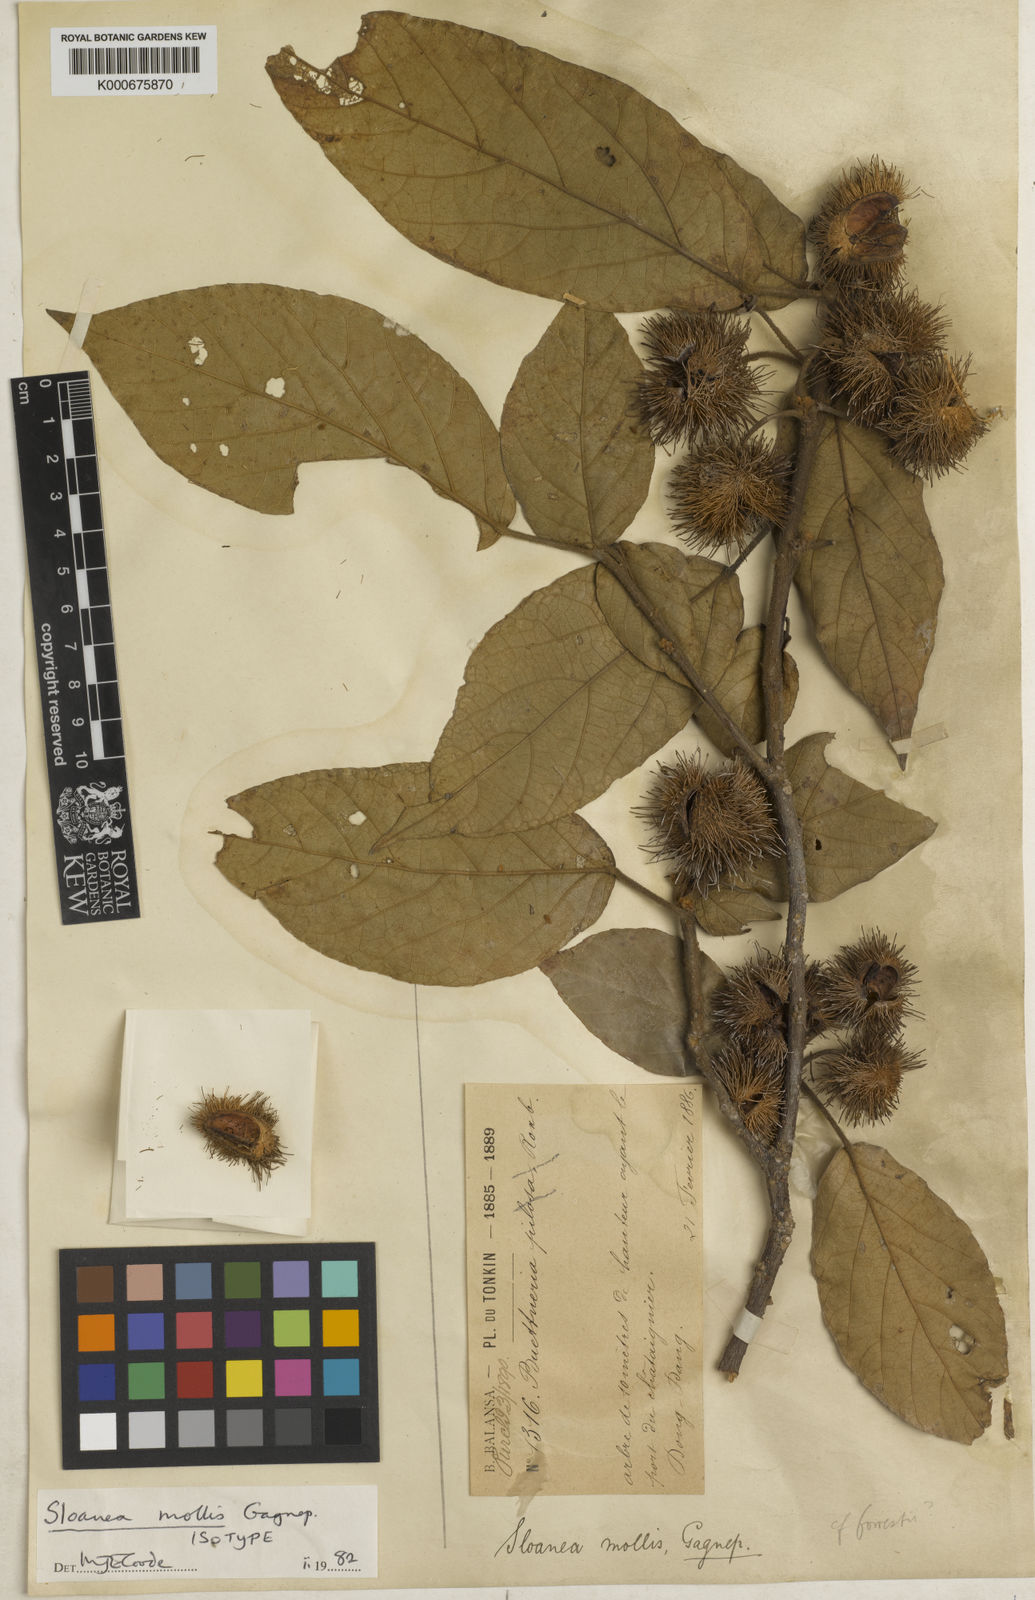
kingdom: Plantae
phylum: Tracheophyta
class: Magnoliopsida
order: Oxalidales
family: Elaeocarpaceae
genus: Sloanea
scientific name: Sloanea tomentosa
